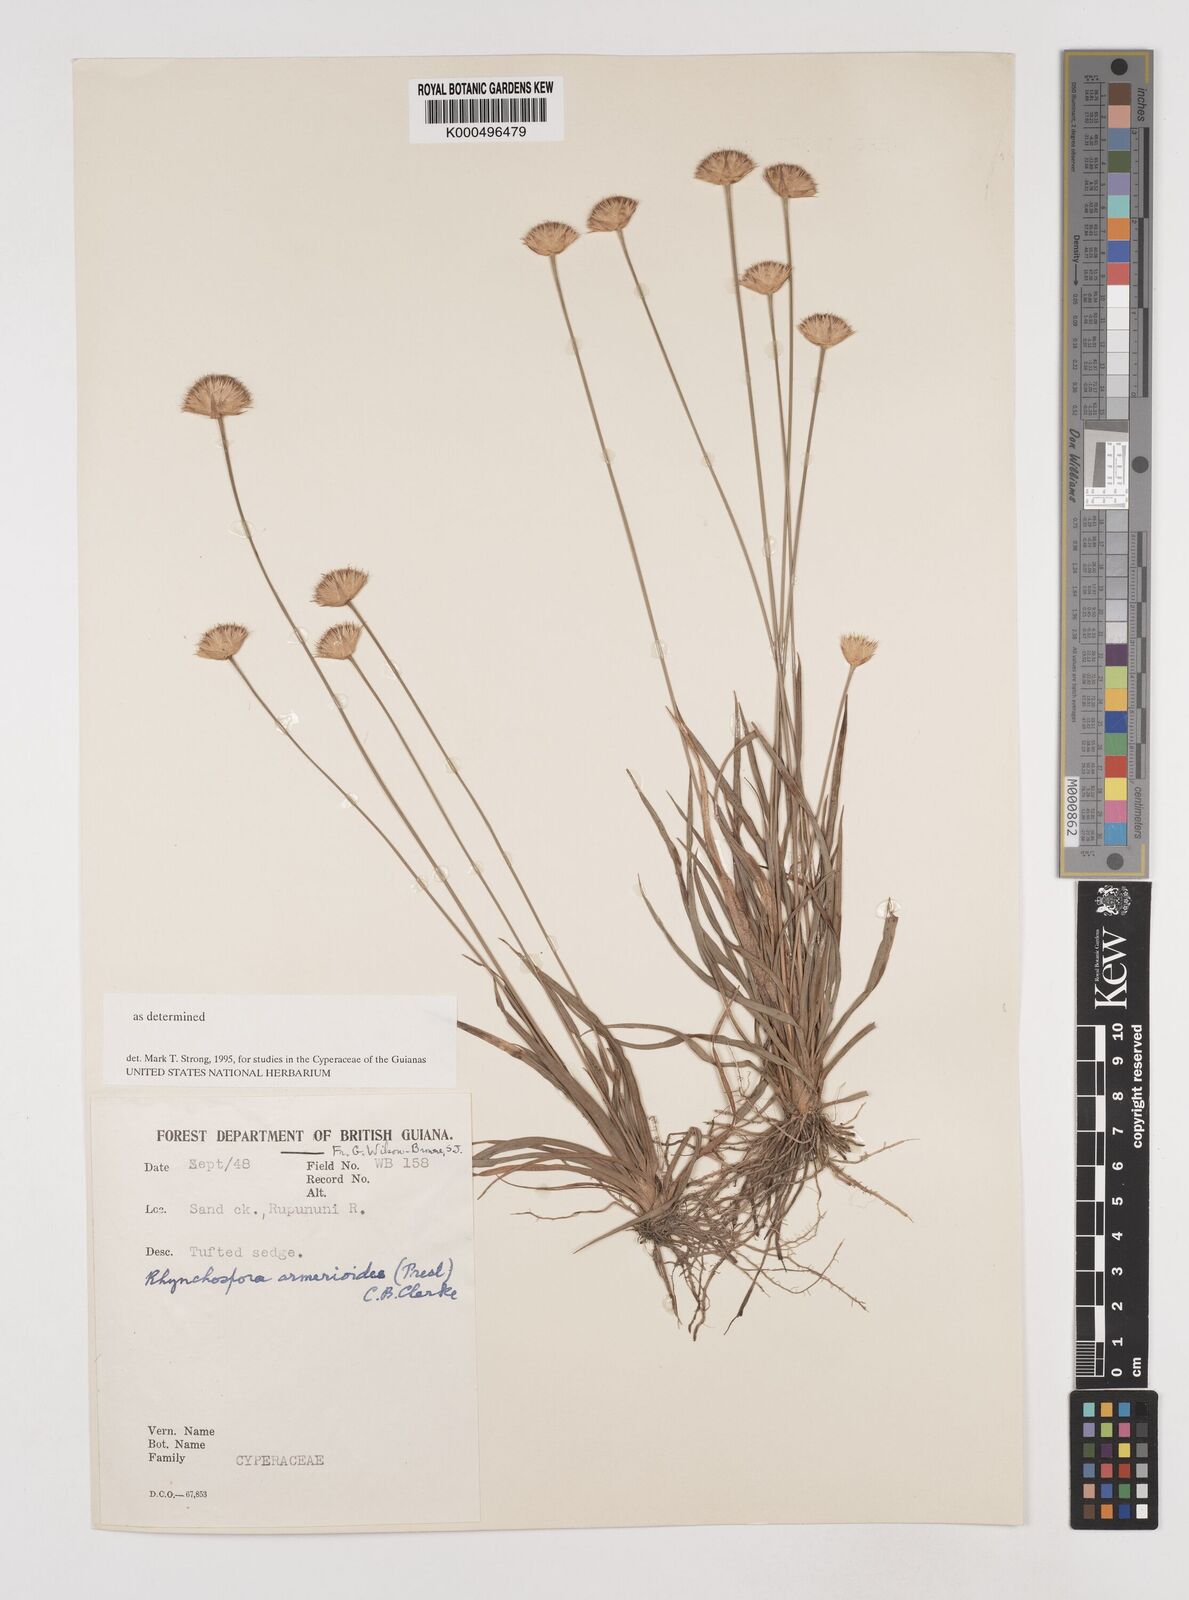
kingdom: Plantae
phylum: Tracheophyta
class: Liliopsida
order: Poales
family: Cyperaceae
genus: Rhynchospora
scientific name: Rhynchospora armerioides
